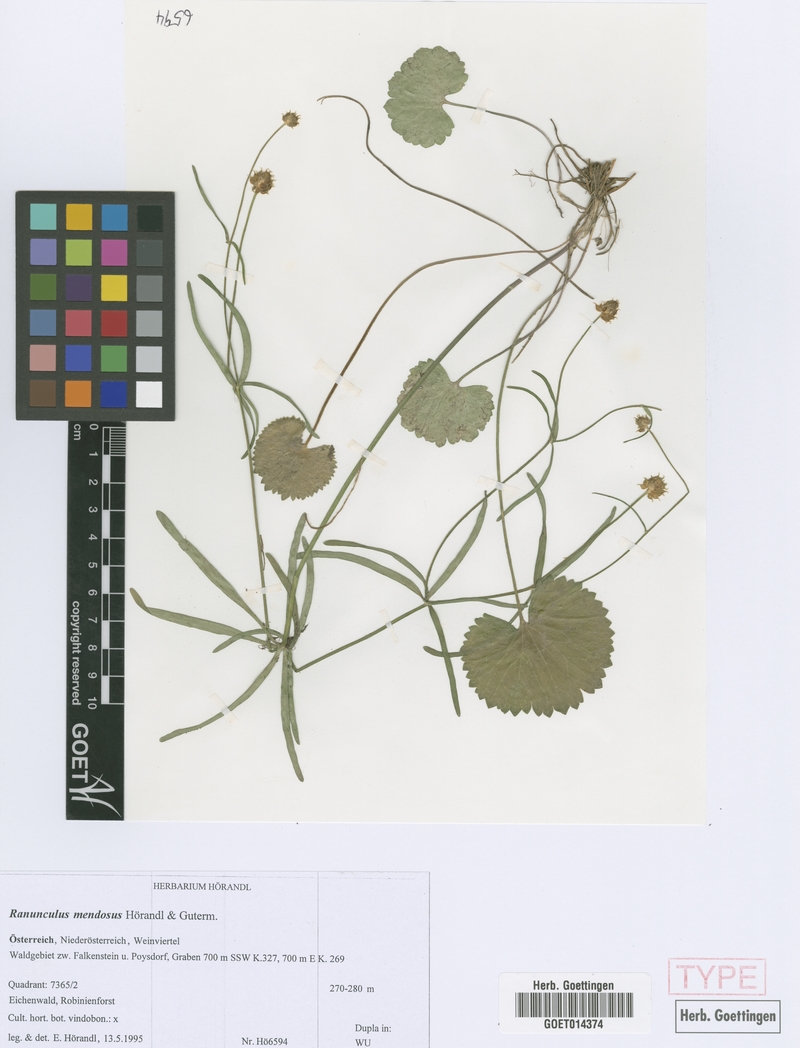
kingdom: Plantae
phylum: Tracheophyta
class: Magnoliopsida
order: Ranunculales
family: Ranunculaceae
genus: Ranunculus
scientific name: Ranunculus mendosus
